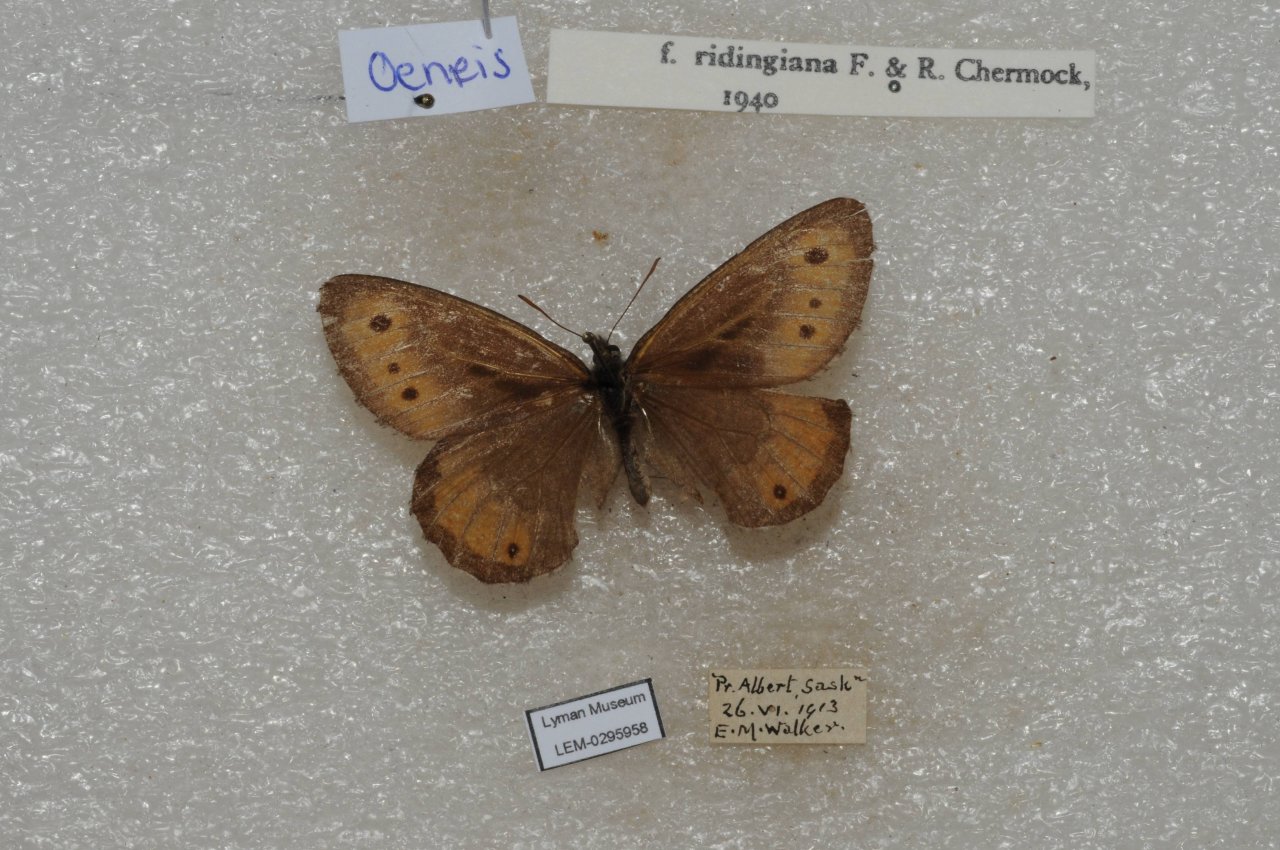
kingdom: Animalia
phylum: Arthropoda
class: Insecta
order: Lepidoptera
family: Nymphalidae
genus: Oeneis
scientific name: Oeneis jutta
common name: Jutta Arctic
